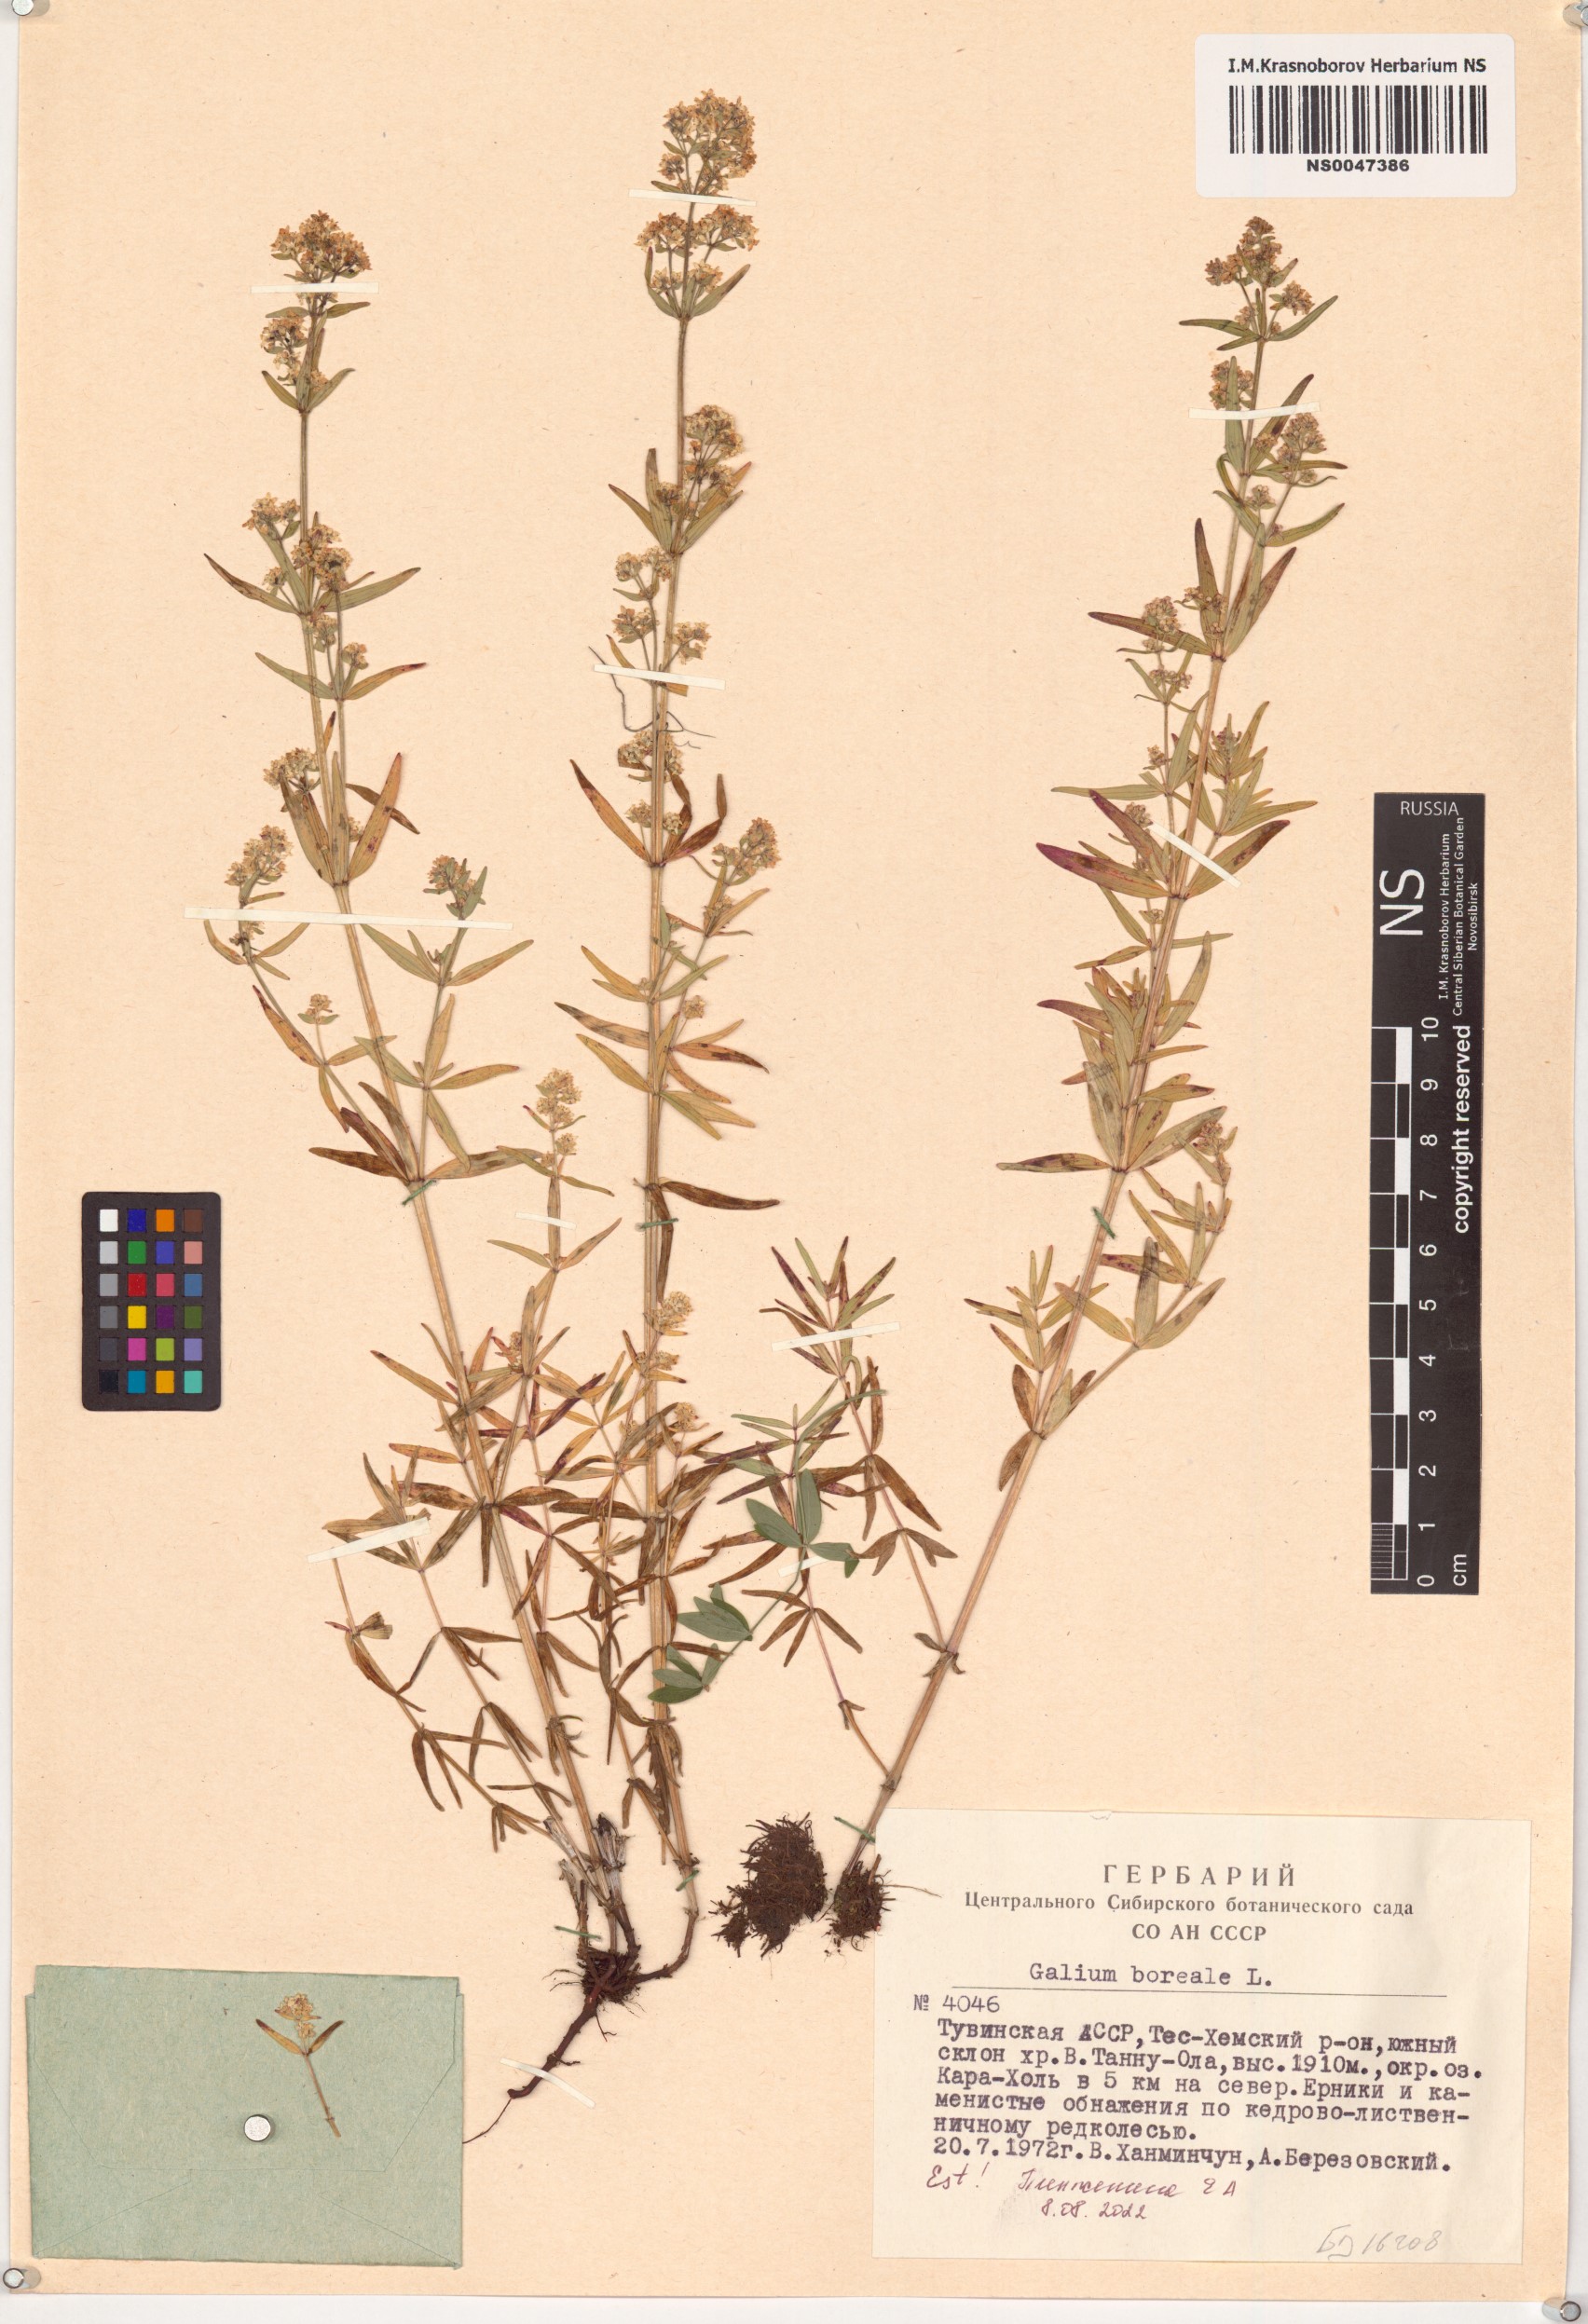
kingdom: Plantae
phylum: Tracheophyta
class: Magnoliopsida
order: Gentianales
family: Rubiaceae
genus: Galium
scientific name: Galium boreale
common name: Northern bedstraw
